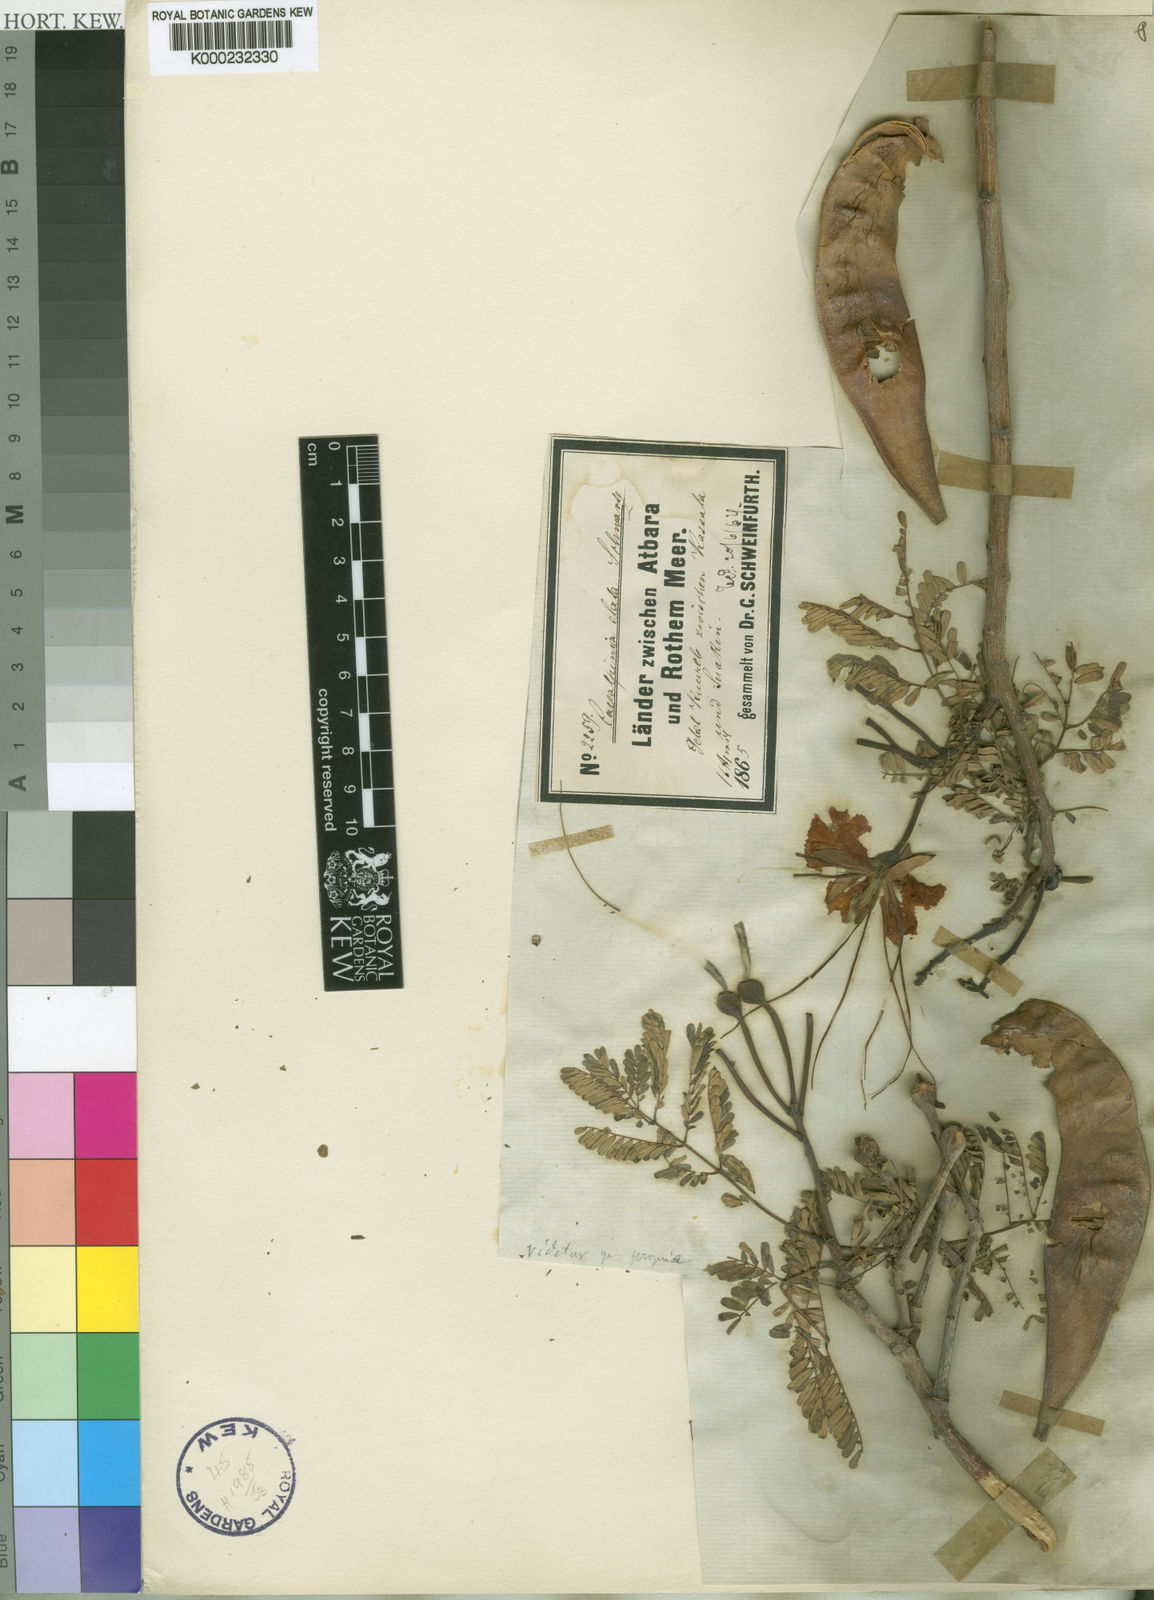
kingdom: Plantae
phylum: Tracheophyta
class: Magnoliopsida
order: Fabales
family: Fabaceae
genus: Delonix
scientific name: Delonix elata
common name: Creamy peacock flower
